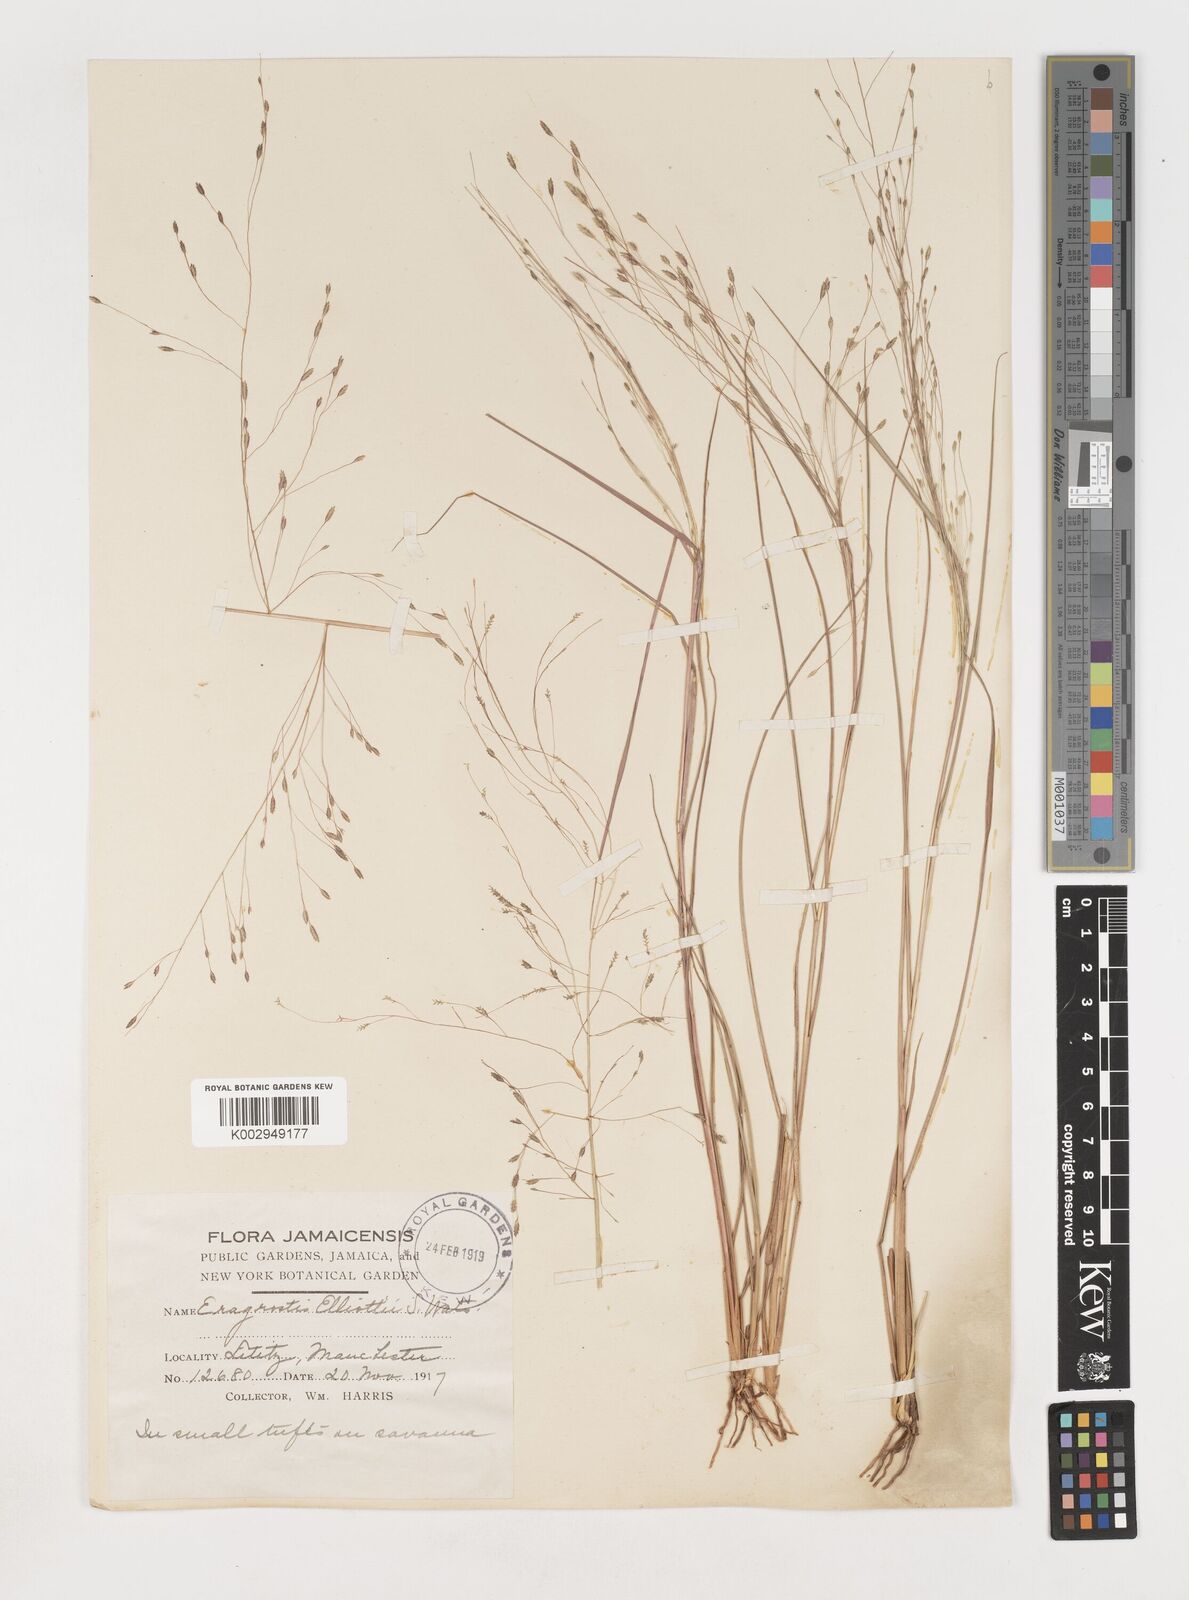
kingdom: Plantae
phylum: Tracheophyta
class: Liliopsida
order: Poales
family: Poaceae
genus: Eragrostis
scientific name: Eragrostis elliottii
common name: Elliott's love grass
